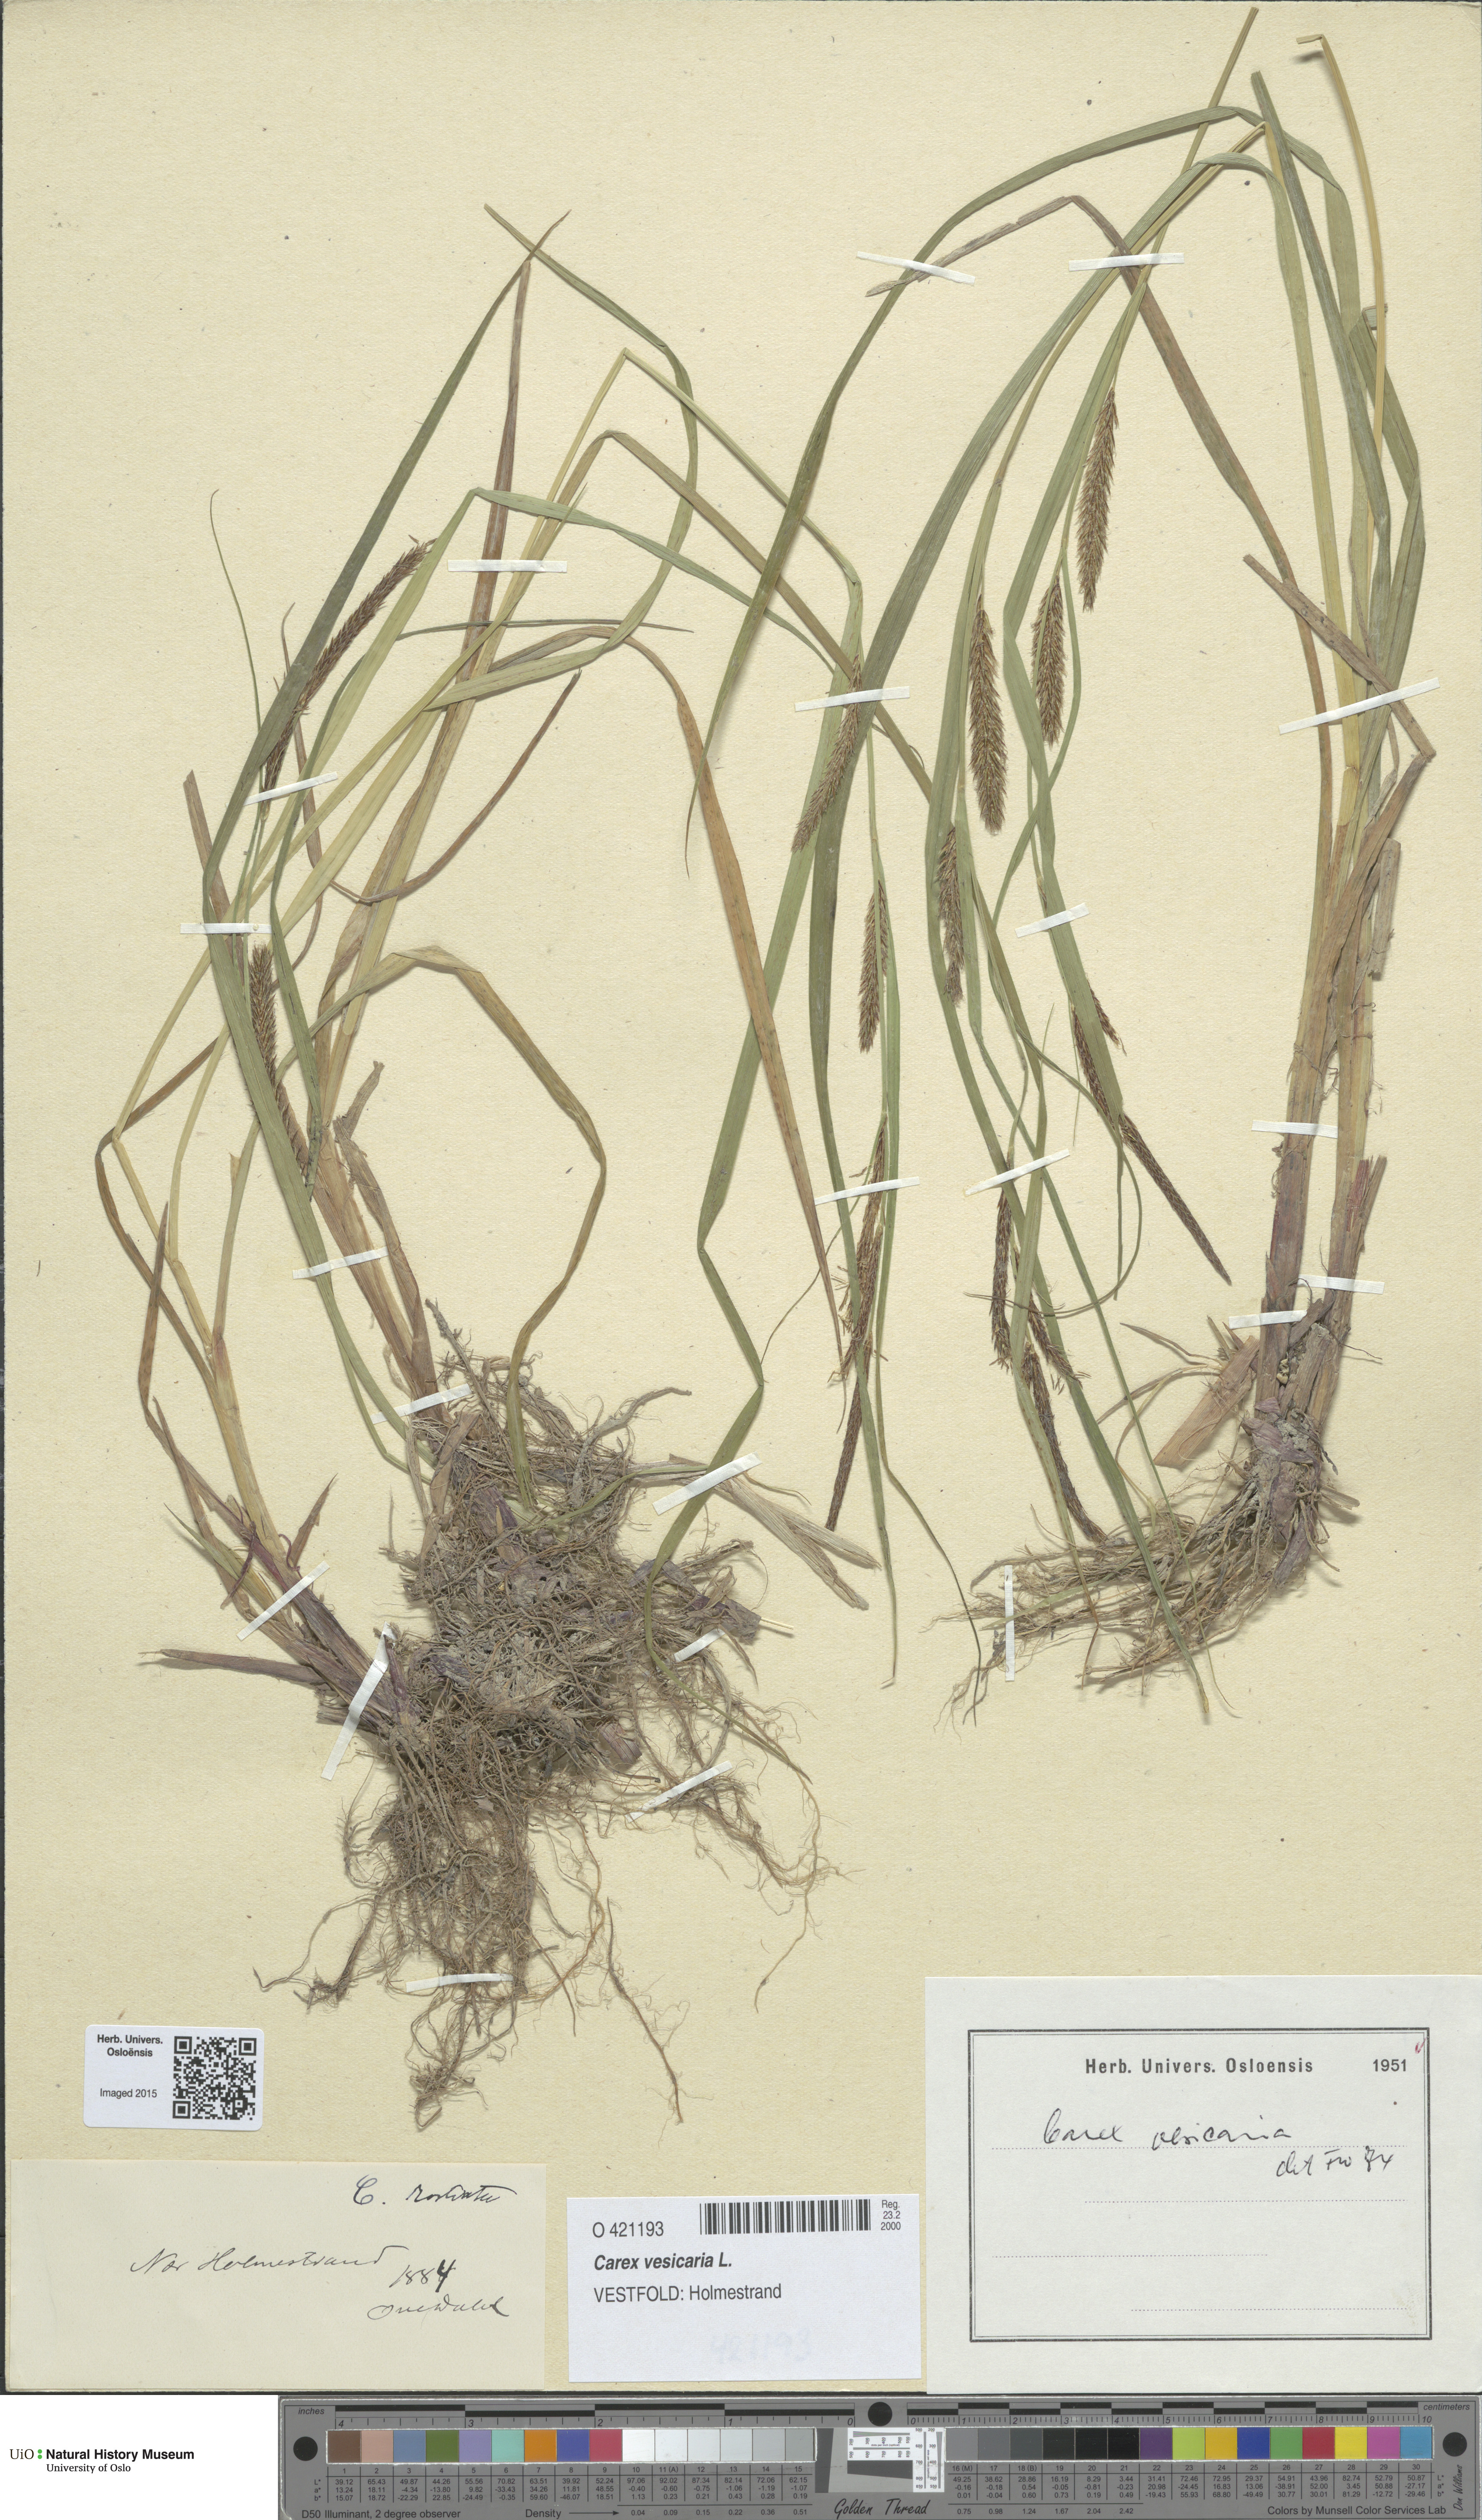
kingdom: Plantae
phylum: Tracheophyta
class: Liliopsida
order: Poales
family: Cyperaceae
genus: Carex
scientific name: Carex vesicaria
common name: Bladder-sedge
